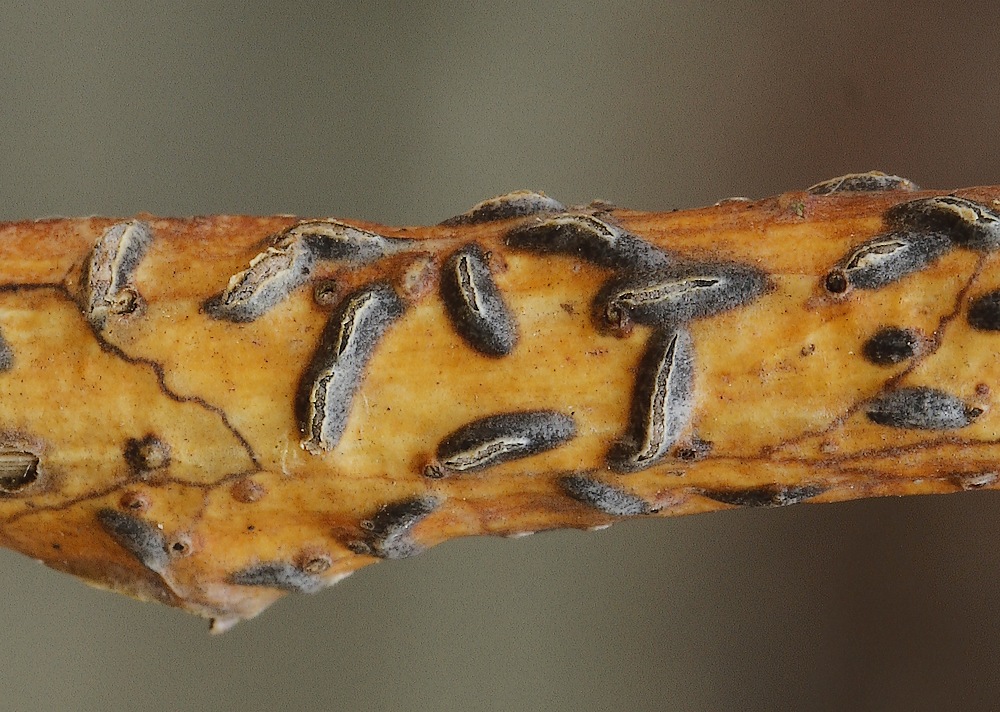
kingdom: Fungi
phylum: Ascomycota
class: Leotiomycetes
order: Rhytismatales
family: Rhytismataceae
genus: Colpoma
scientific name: Colpoma quercinum
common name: ege-sprækkeskive
